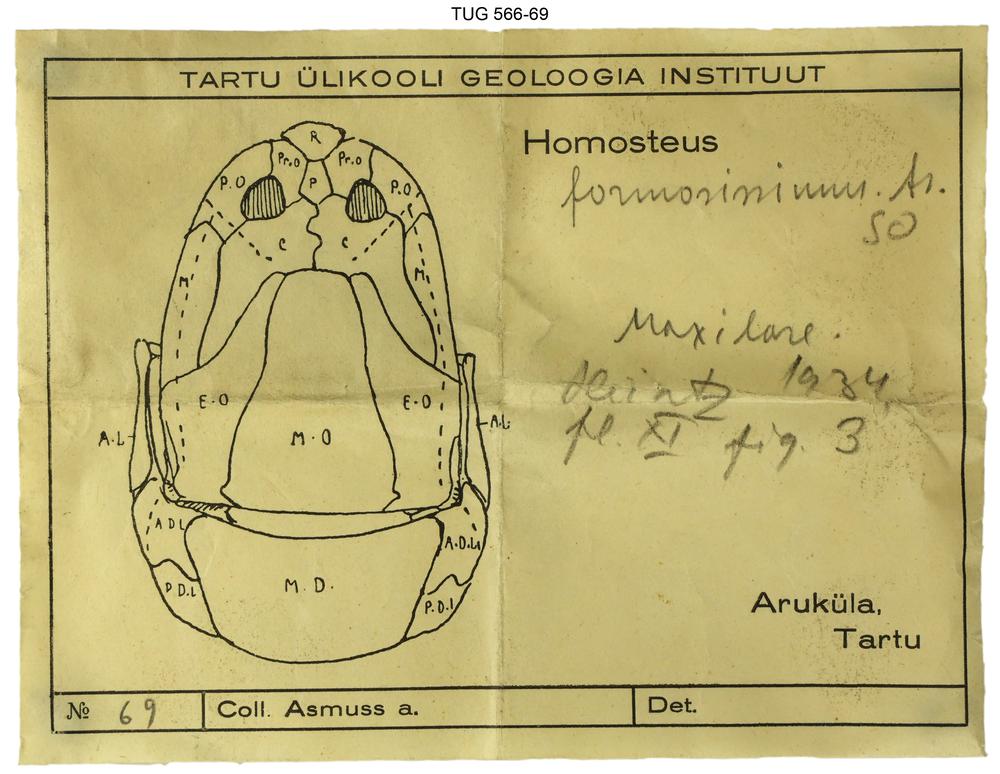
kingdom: Animalia
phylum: Chordata
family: Homostiidae
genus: Homostius
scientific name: Homostius
